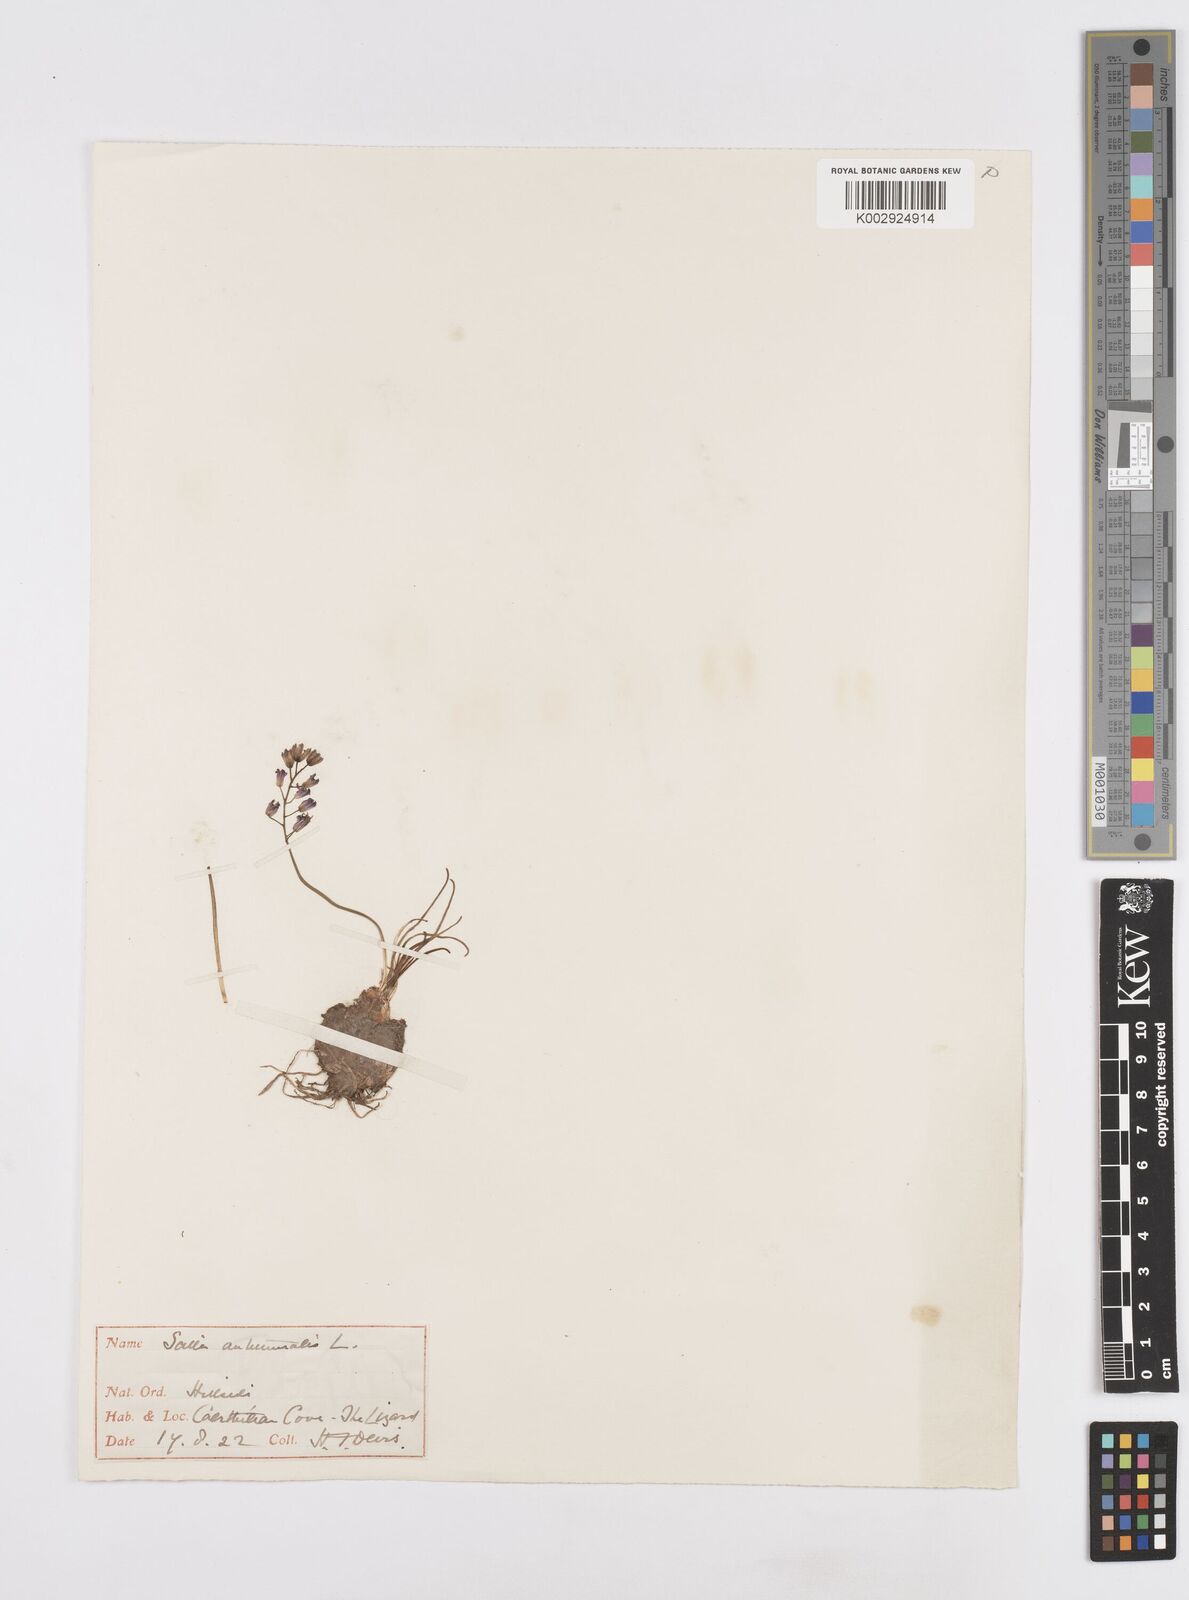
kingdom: Plantae
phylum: Tracheophyta
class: Liliopsida
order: Asparagales
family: Asparagaceae
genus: Prospero
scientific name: Prospero autumnale
